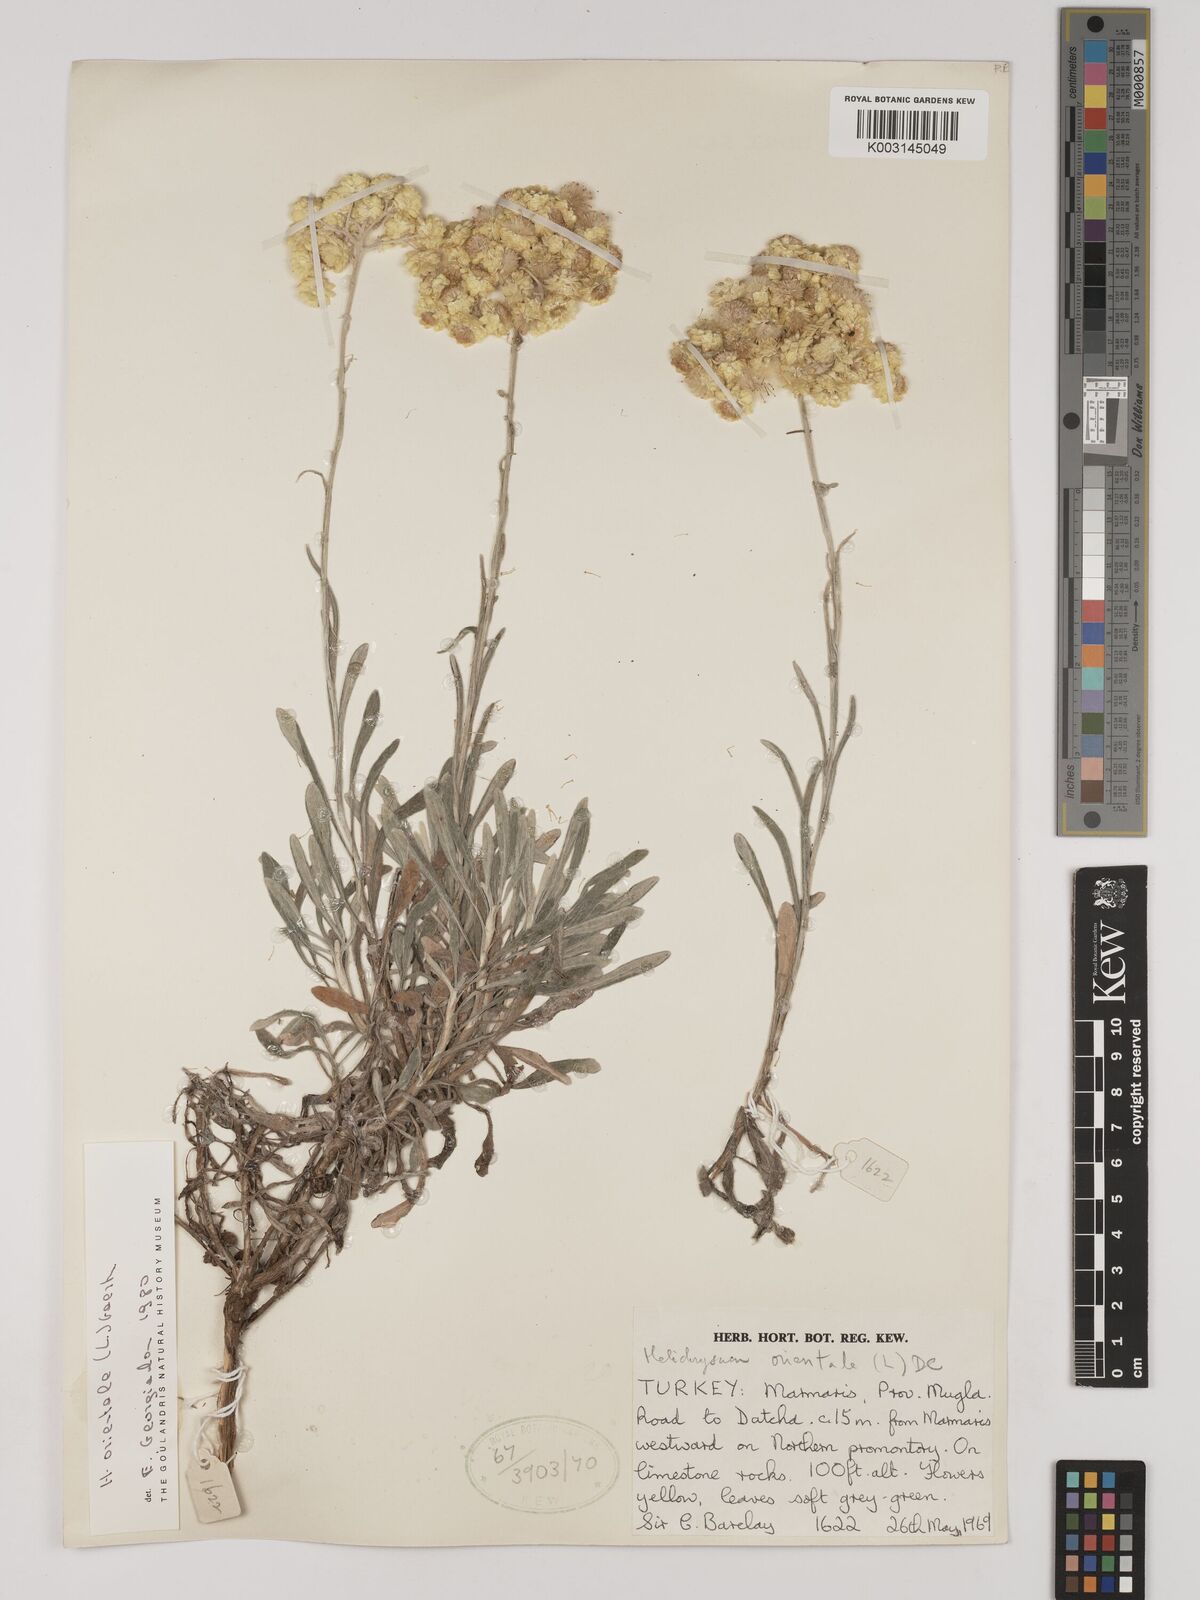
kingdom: Plantae
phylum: Tracheophyta
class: Magnoliopsida
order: Asterales
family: Asteraceae
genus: Helichrysum
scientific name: Helichrysum orientale
